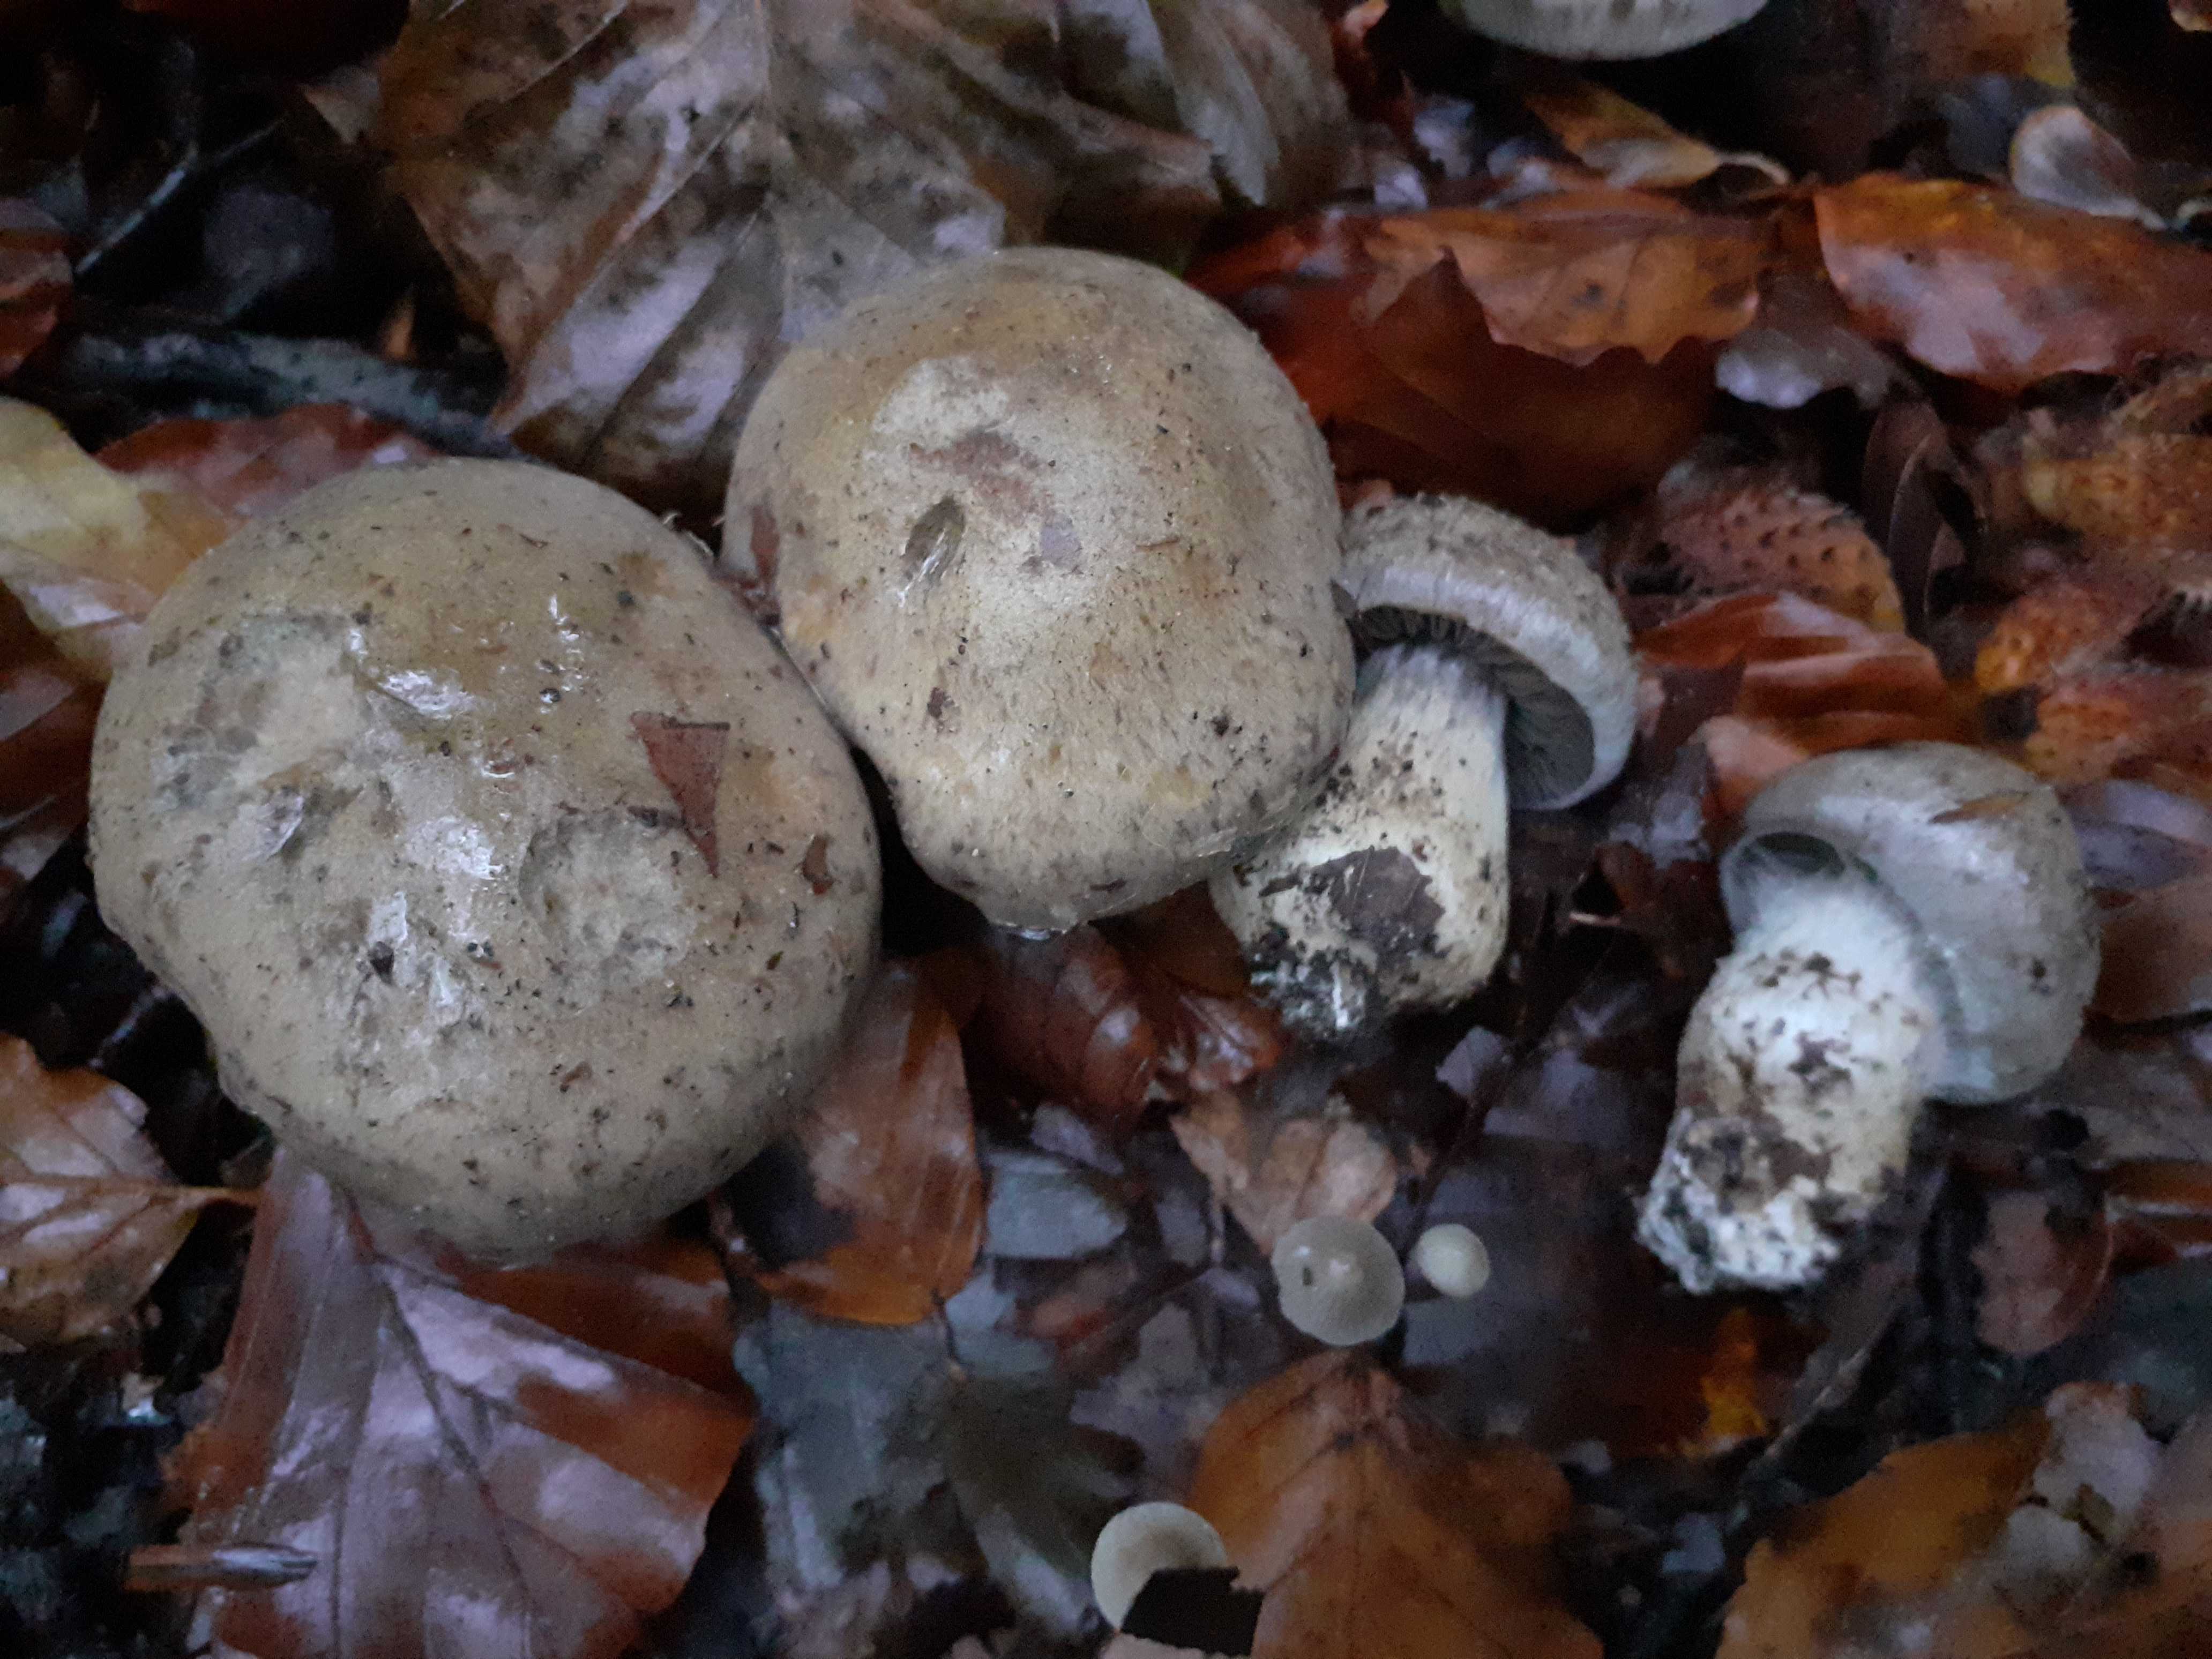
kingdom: Fungi
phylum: Basidiomycota
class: Agaricomycetes
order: Agaricales
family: Cortinariaceae
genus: Cortinarius
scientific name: Cortinarius
